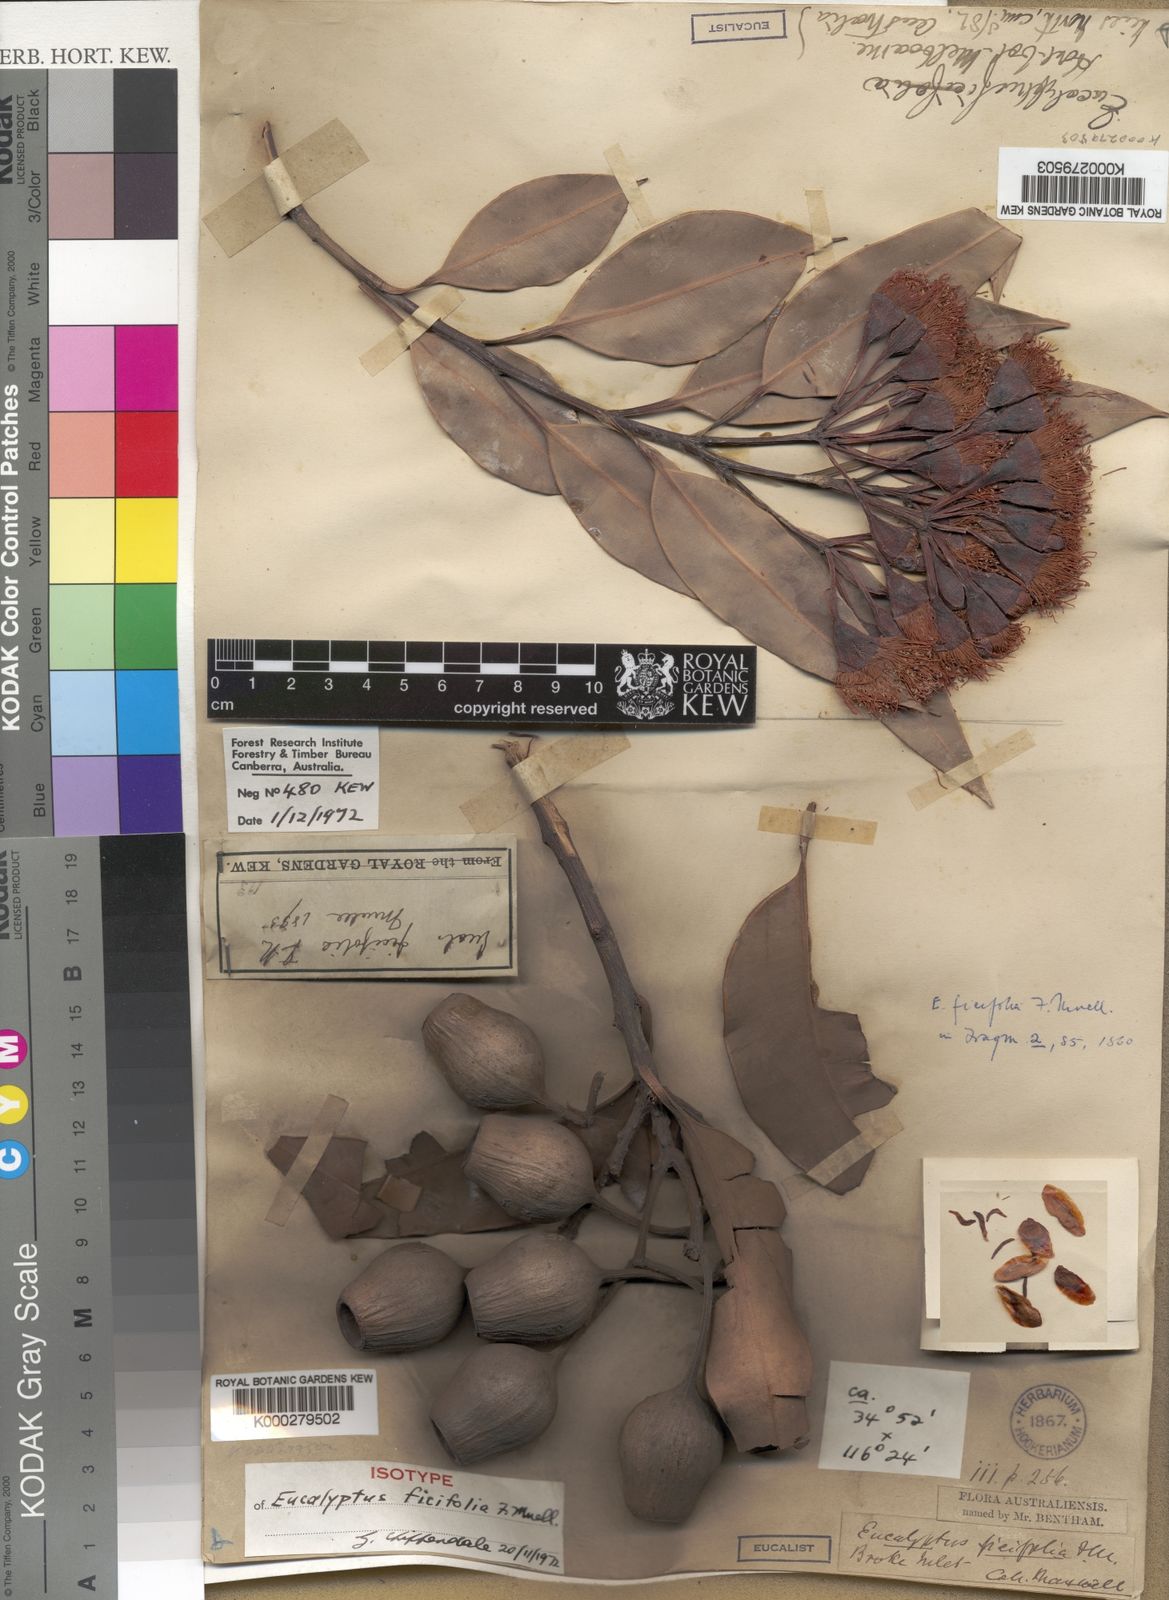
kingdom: Plantae
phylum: Tracheophyta
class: Magnoliopsida
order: Myrtales
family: Myrtaceae
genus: Corymbia
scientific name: Corymbia ficifolia
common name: Redflower gum
